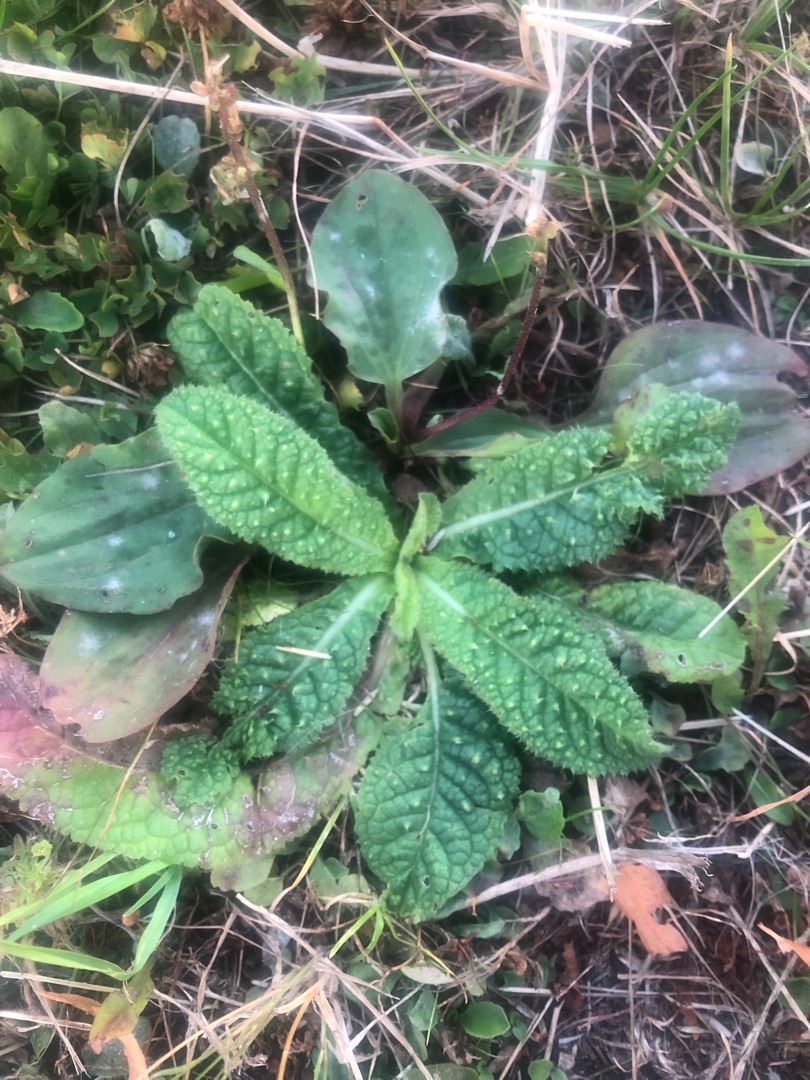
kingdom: Plantae
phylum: Tracheophyta
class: Magnoliopsida
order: Asterales
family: Asteraceae
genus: Helminthotheca
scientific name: Helminthotheca echioides
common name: Vingekurv
